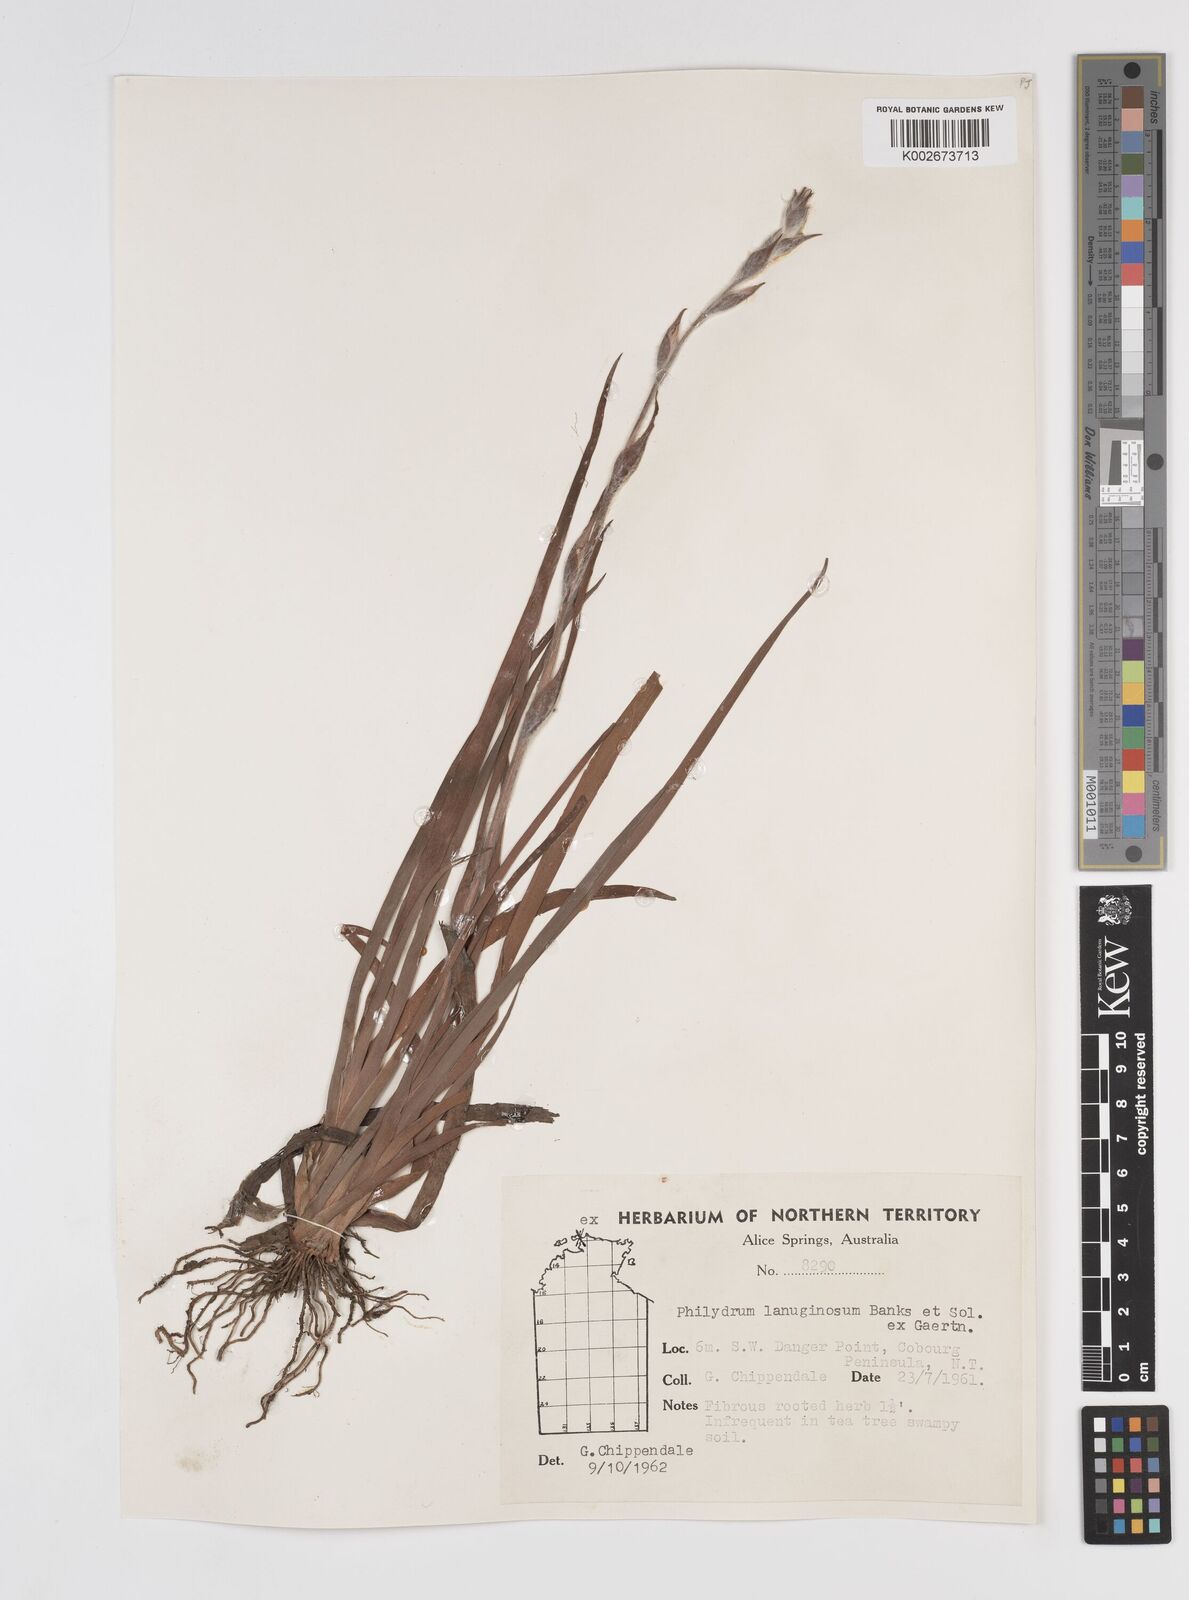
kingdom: Plantae
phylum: Tracheophyta
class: Liliopsida
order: Commelinales
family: Philydraceae
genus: Philydrum
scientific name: Philydrum lanuginosum
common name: Woolly frog's mouth
